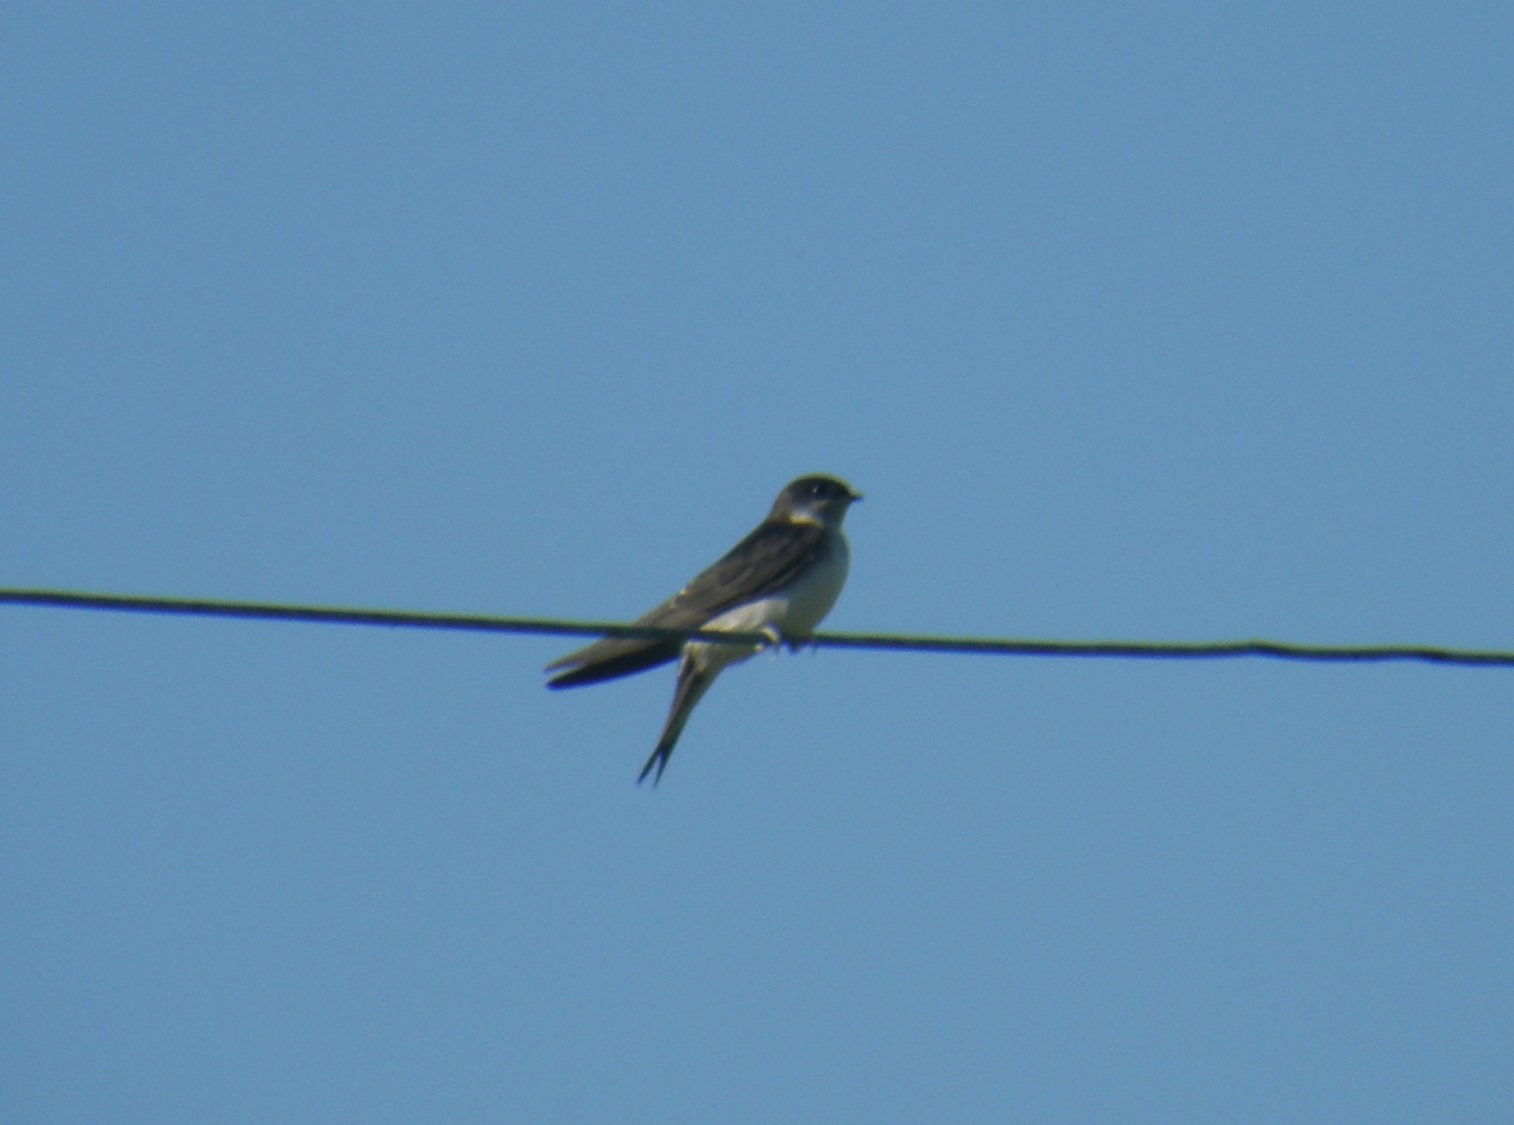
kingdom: Animalia
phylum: Chordata
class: Aves
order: Passeriformes
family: Hirundinidae
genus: Delichon
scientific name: Delichon urbicum
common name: Bysvale
